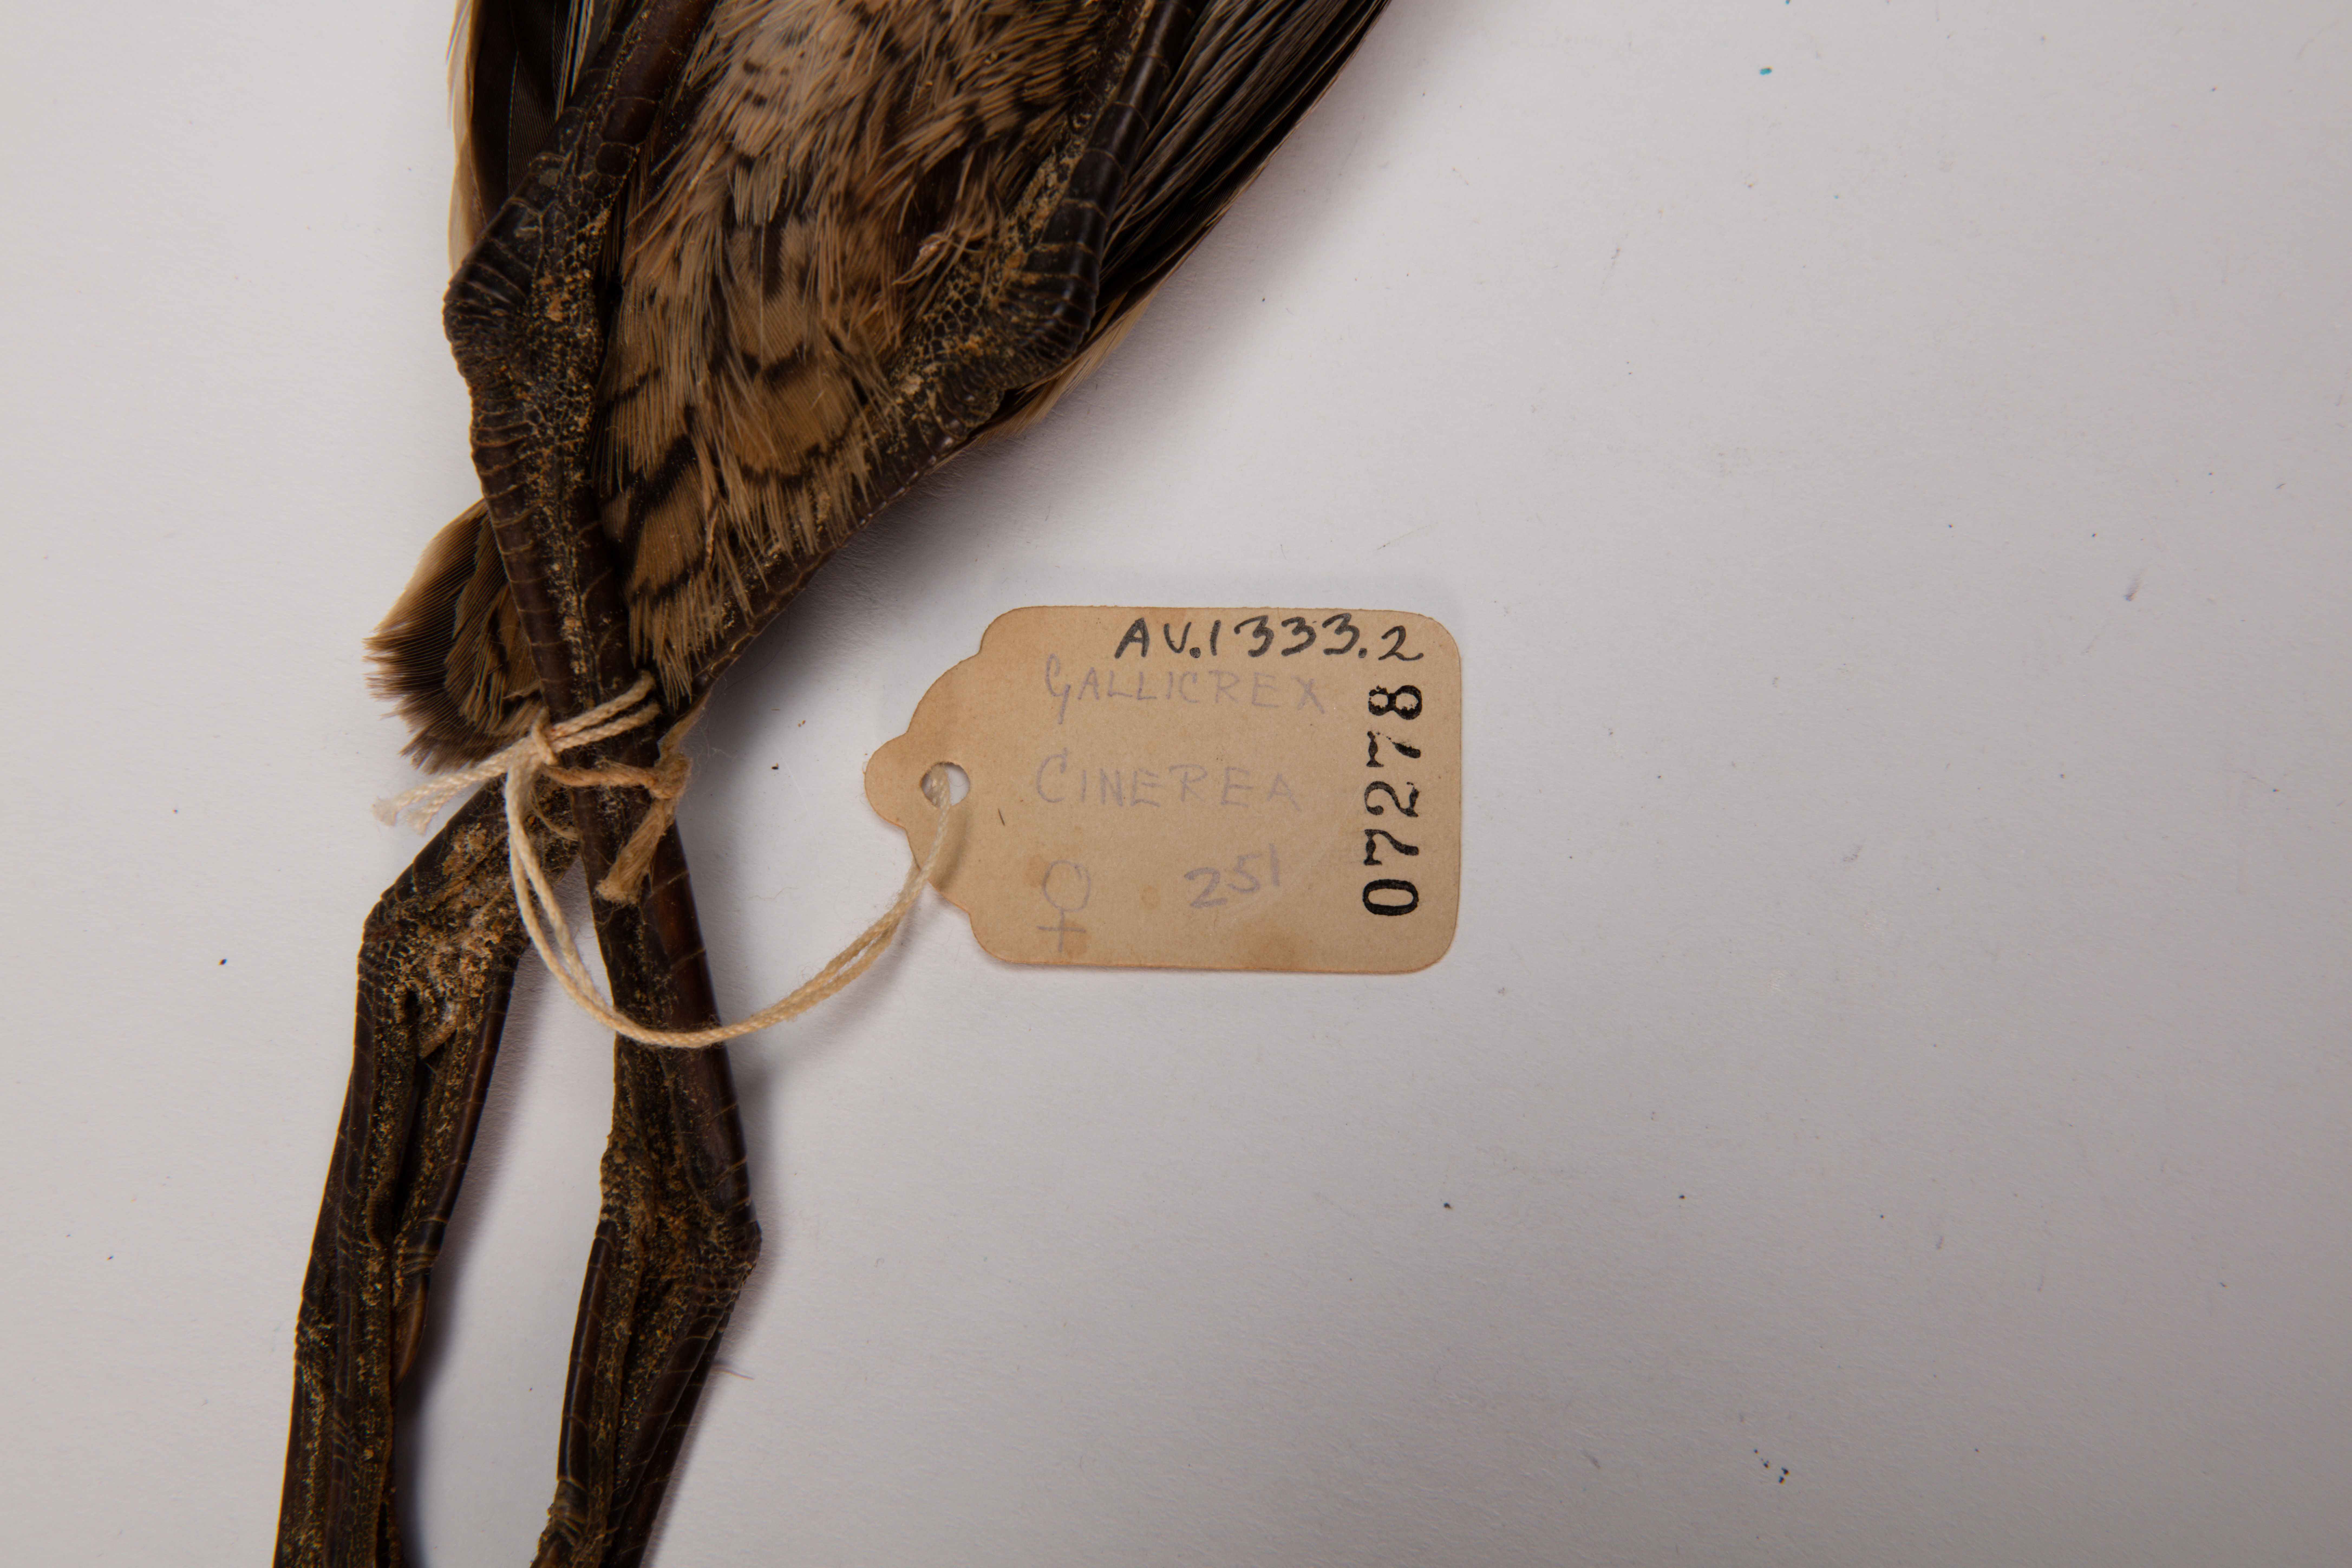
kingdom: Animalia
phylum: Chordata
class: Aves
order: Gruiformes
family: Rallidae
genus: Gallicrex
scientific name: Gallicrex cinerea
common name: Watercock
